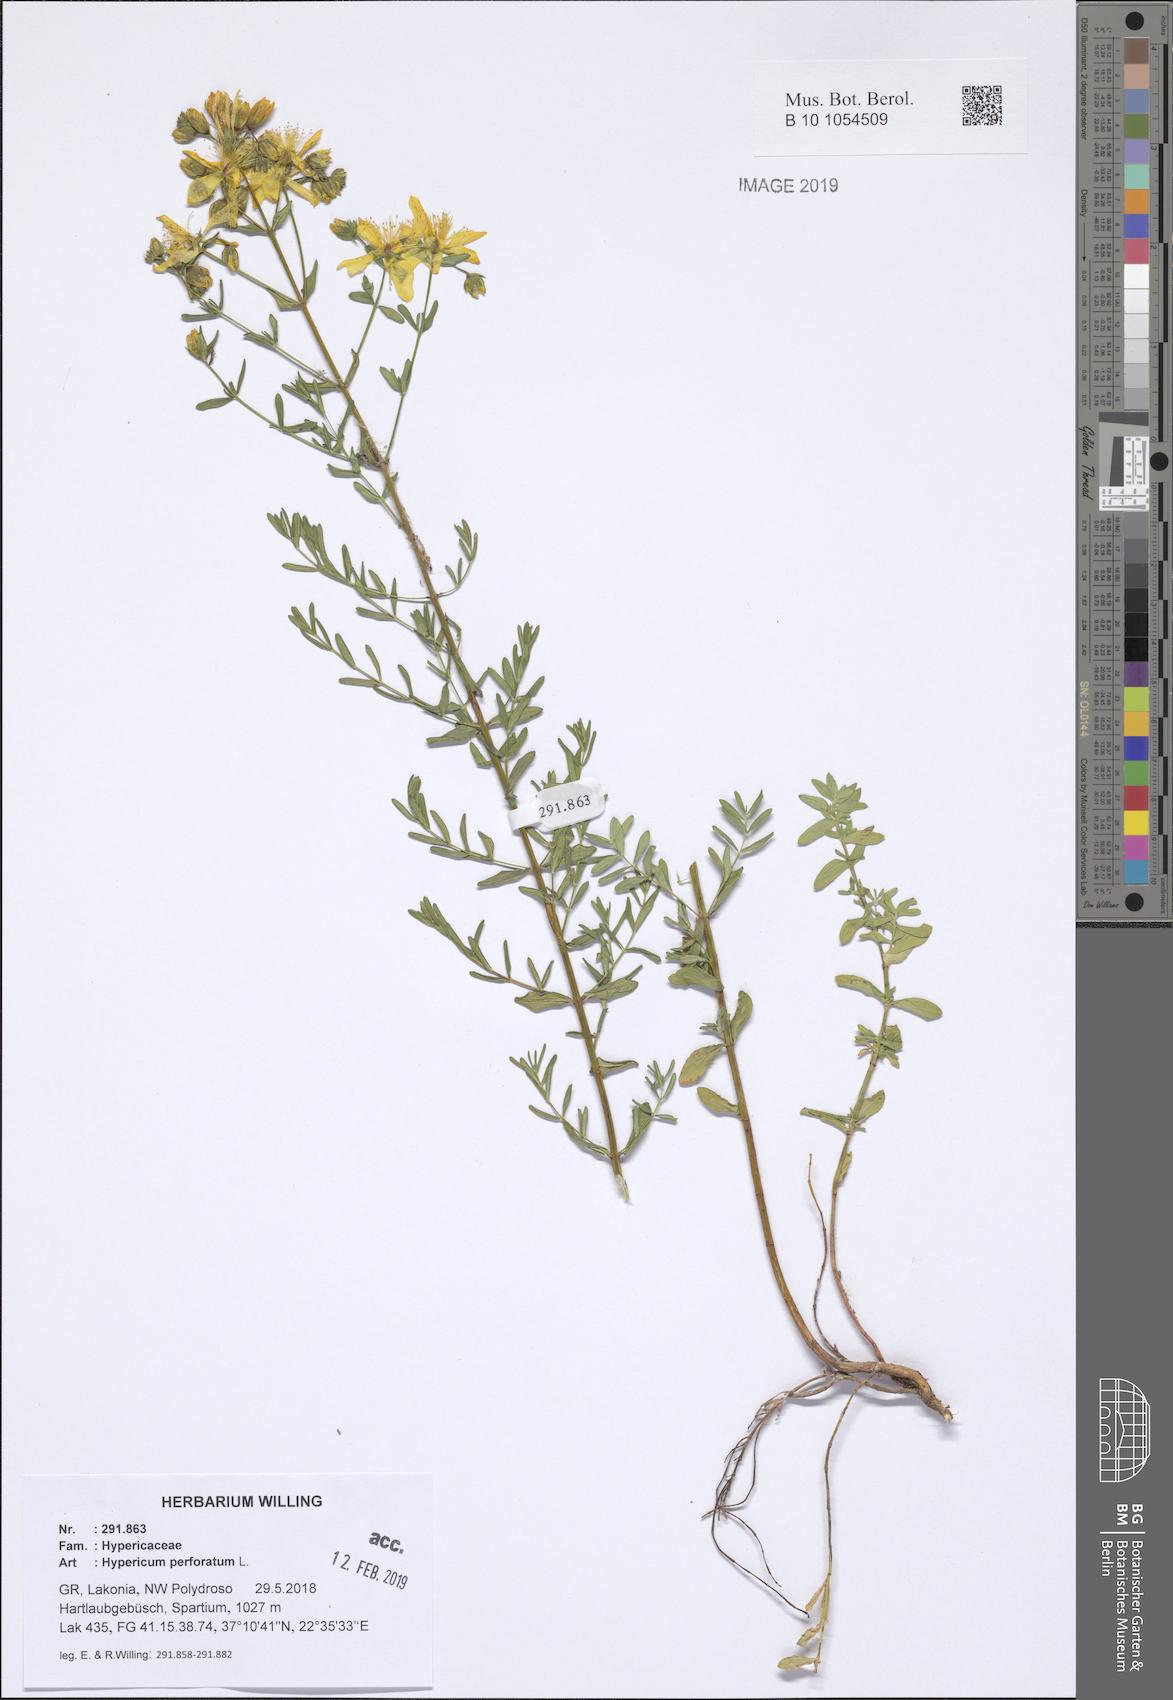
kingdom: Plantae
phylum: Tracheophyta
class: Magnoliopsida
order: Malpighiales
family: Hypericaceae
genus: Hypericum
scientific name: Hypericum perforatum
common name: Common st. johnswort
